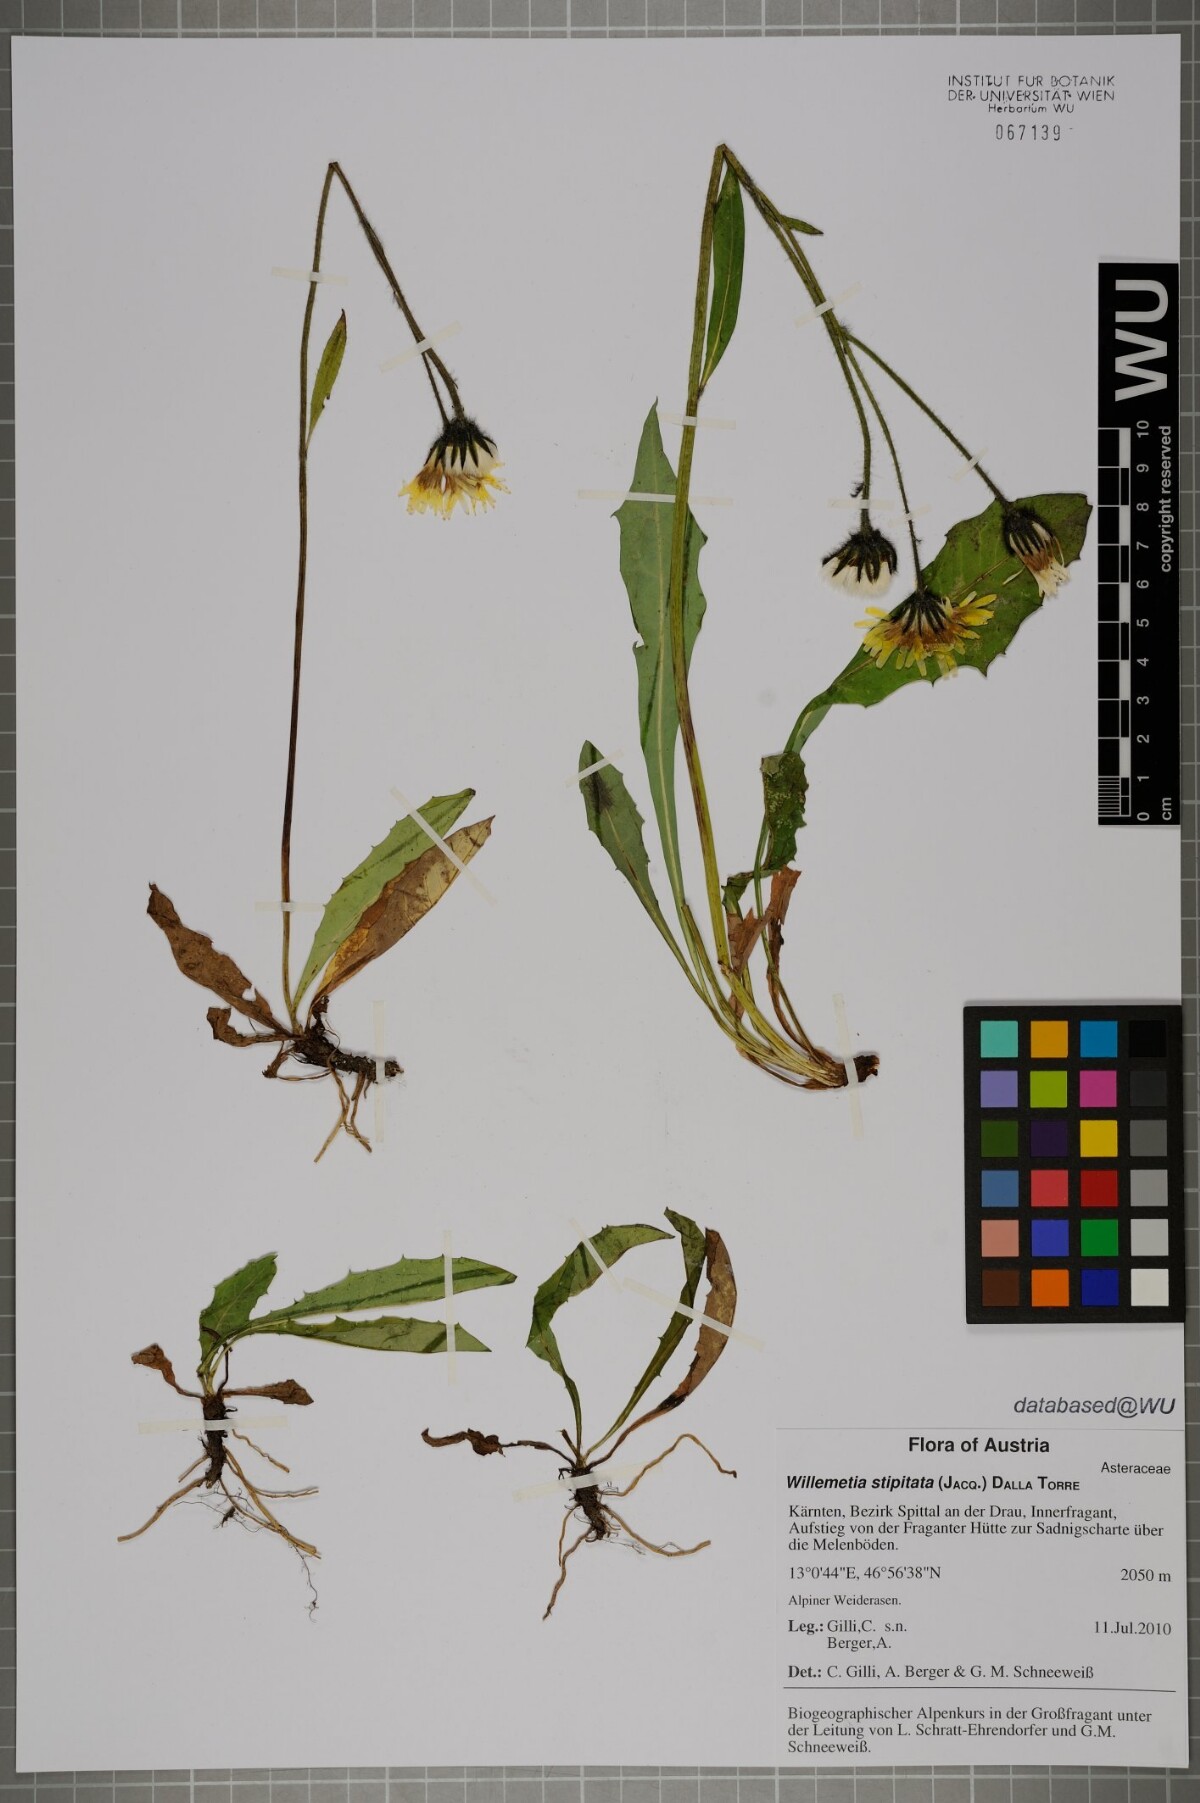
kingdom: Plantae
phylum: Tracheophyta
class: Magnoliopsida
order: Asterales
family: Asteraceae
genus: Willemetia
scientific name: Willemetia stipitata
